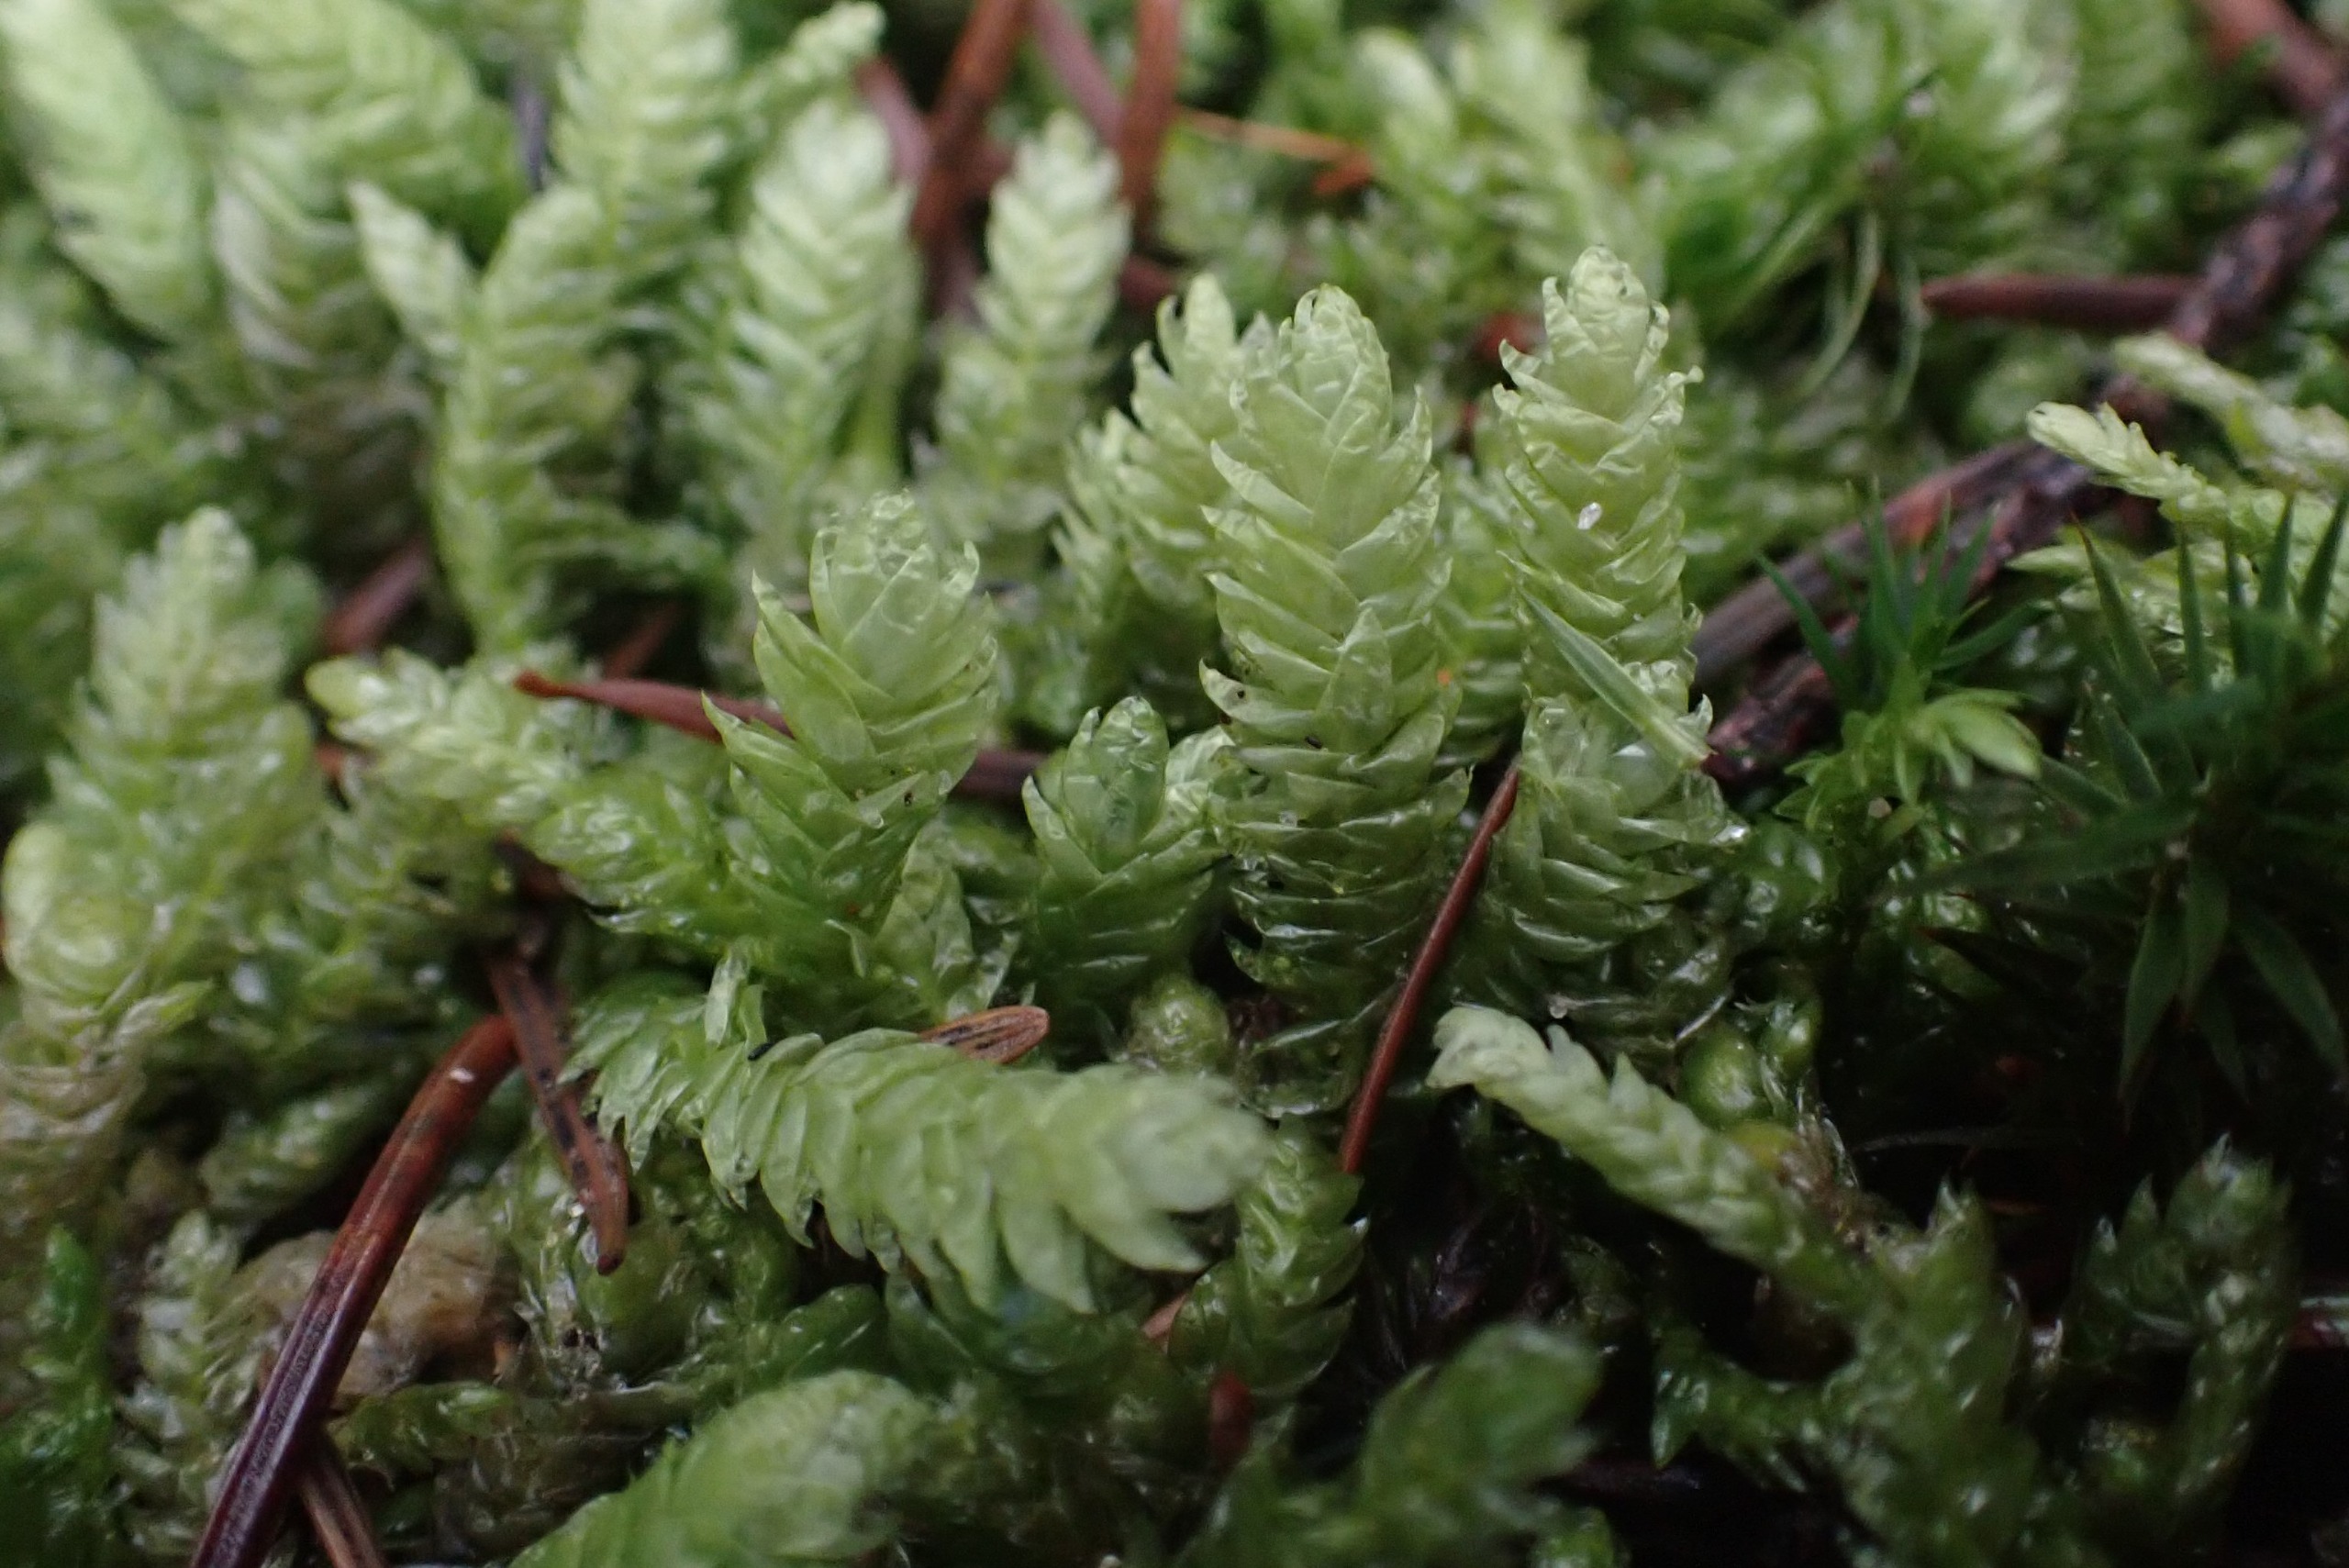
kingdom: Plantae
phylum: Bryophyta
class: Bryopsida
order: Hypnales
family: Plagiotheciaceae
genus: Plagiothecium
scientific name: Plagiothecium undulatum
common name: Bølget tæppemos
